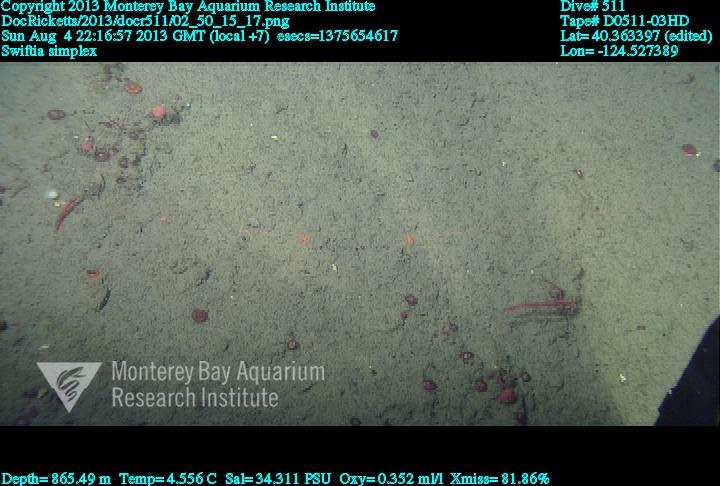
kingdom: Animalia
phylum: Cnidaria
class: Anthozoa
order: Malacalcyonacea
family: Gorgoniidae
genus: Callistephanus
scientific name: Callistephanus simplex
